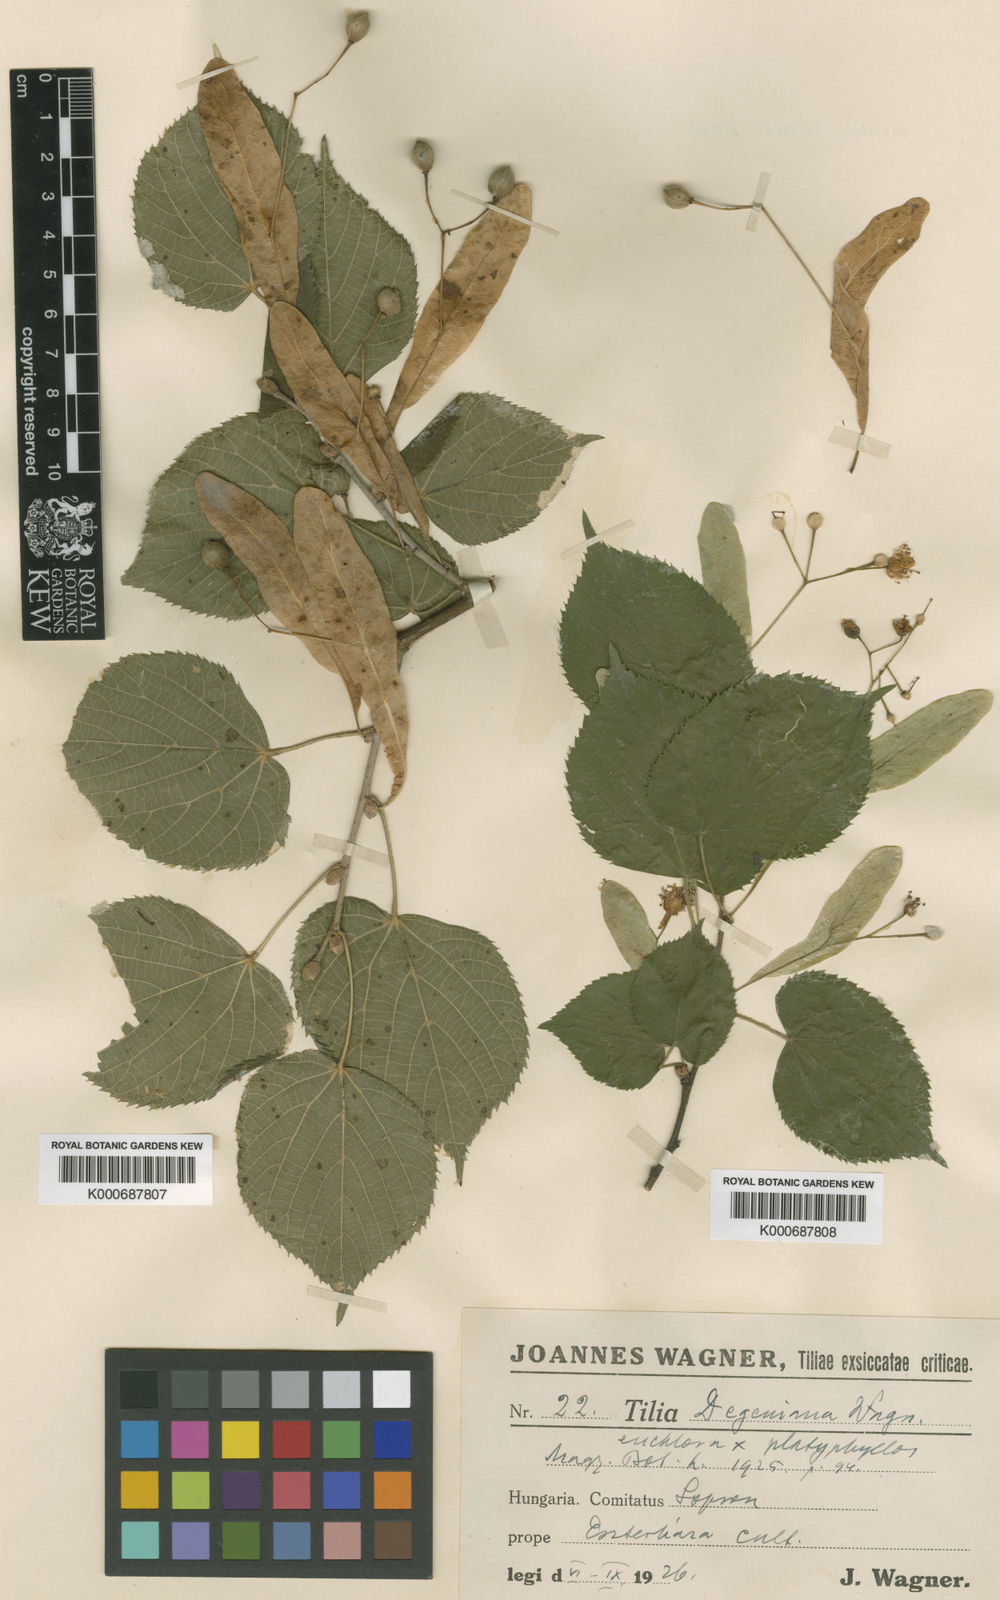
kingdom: Plantae
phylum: Tracheophyta
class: Magnoliopsida
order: Malvales
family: Malvaceae
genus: Tilia
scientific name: Tilia
